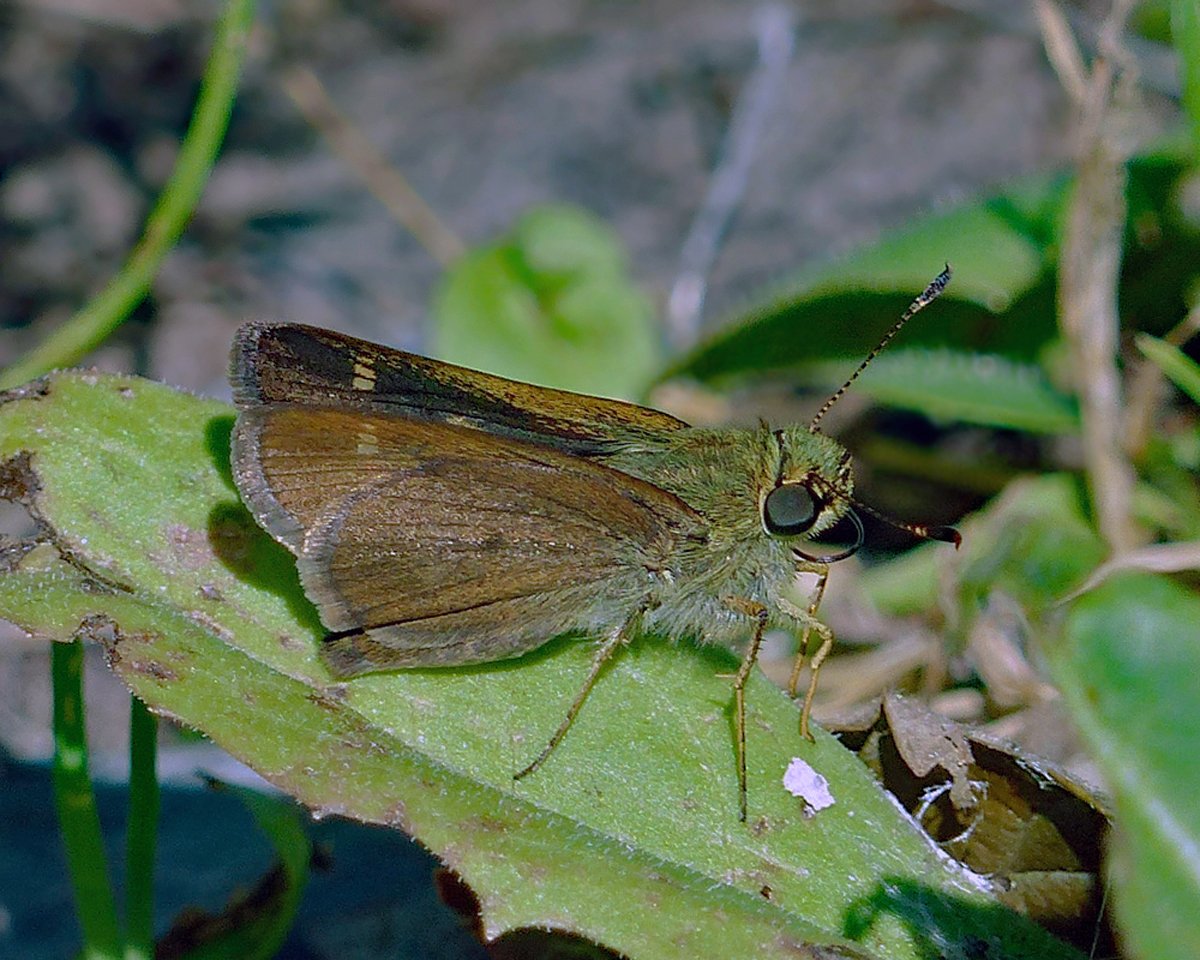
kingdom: Animalia
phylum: Arthropoda
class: Insecta
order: Lepidoptera
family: Hesperiidae
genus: Polites
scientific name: Polites egeremet
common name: Northern Broken-Dash
